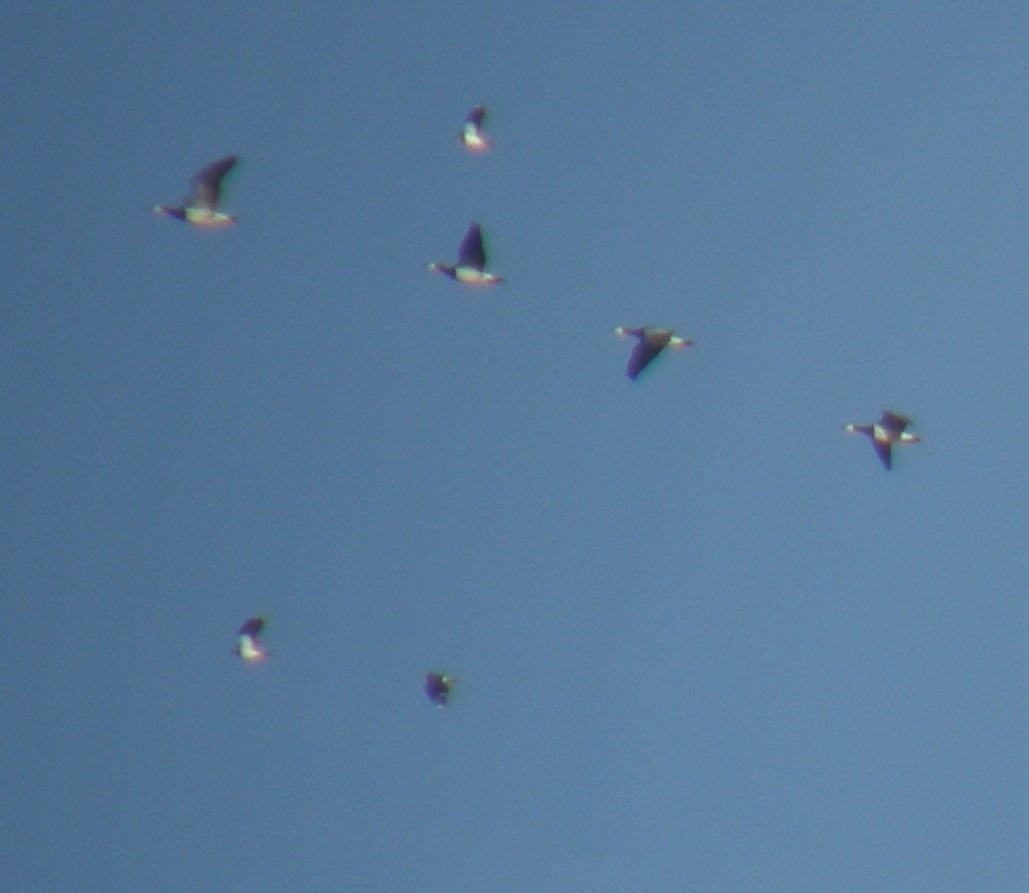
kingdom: Animalia
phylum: Chordata
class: Aves
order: Charadriiformes
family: Charadriidae
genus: Vanellus
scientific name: Vanellus vanellus
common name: Vibe
